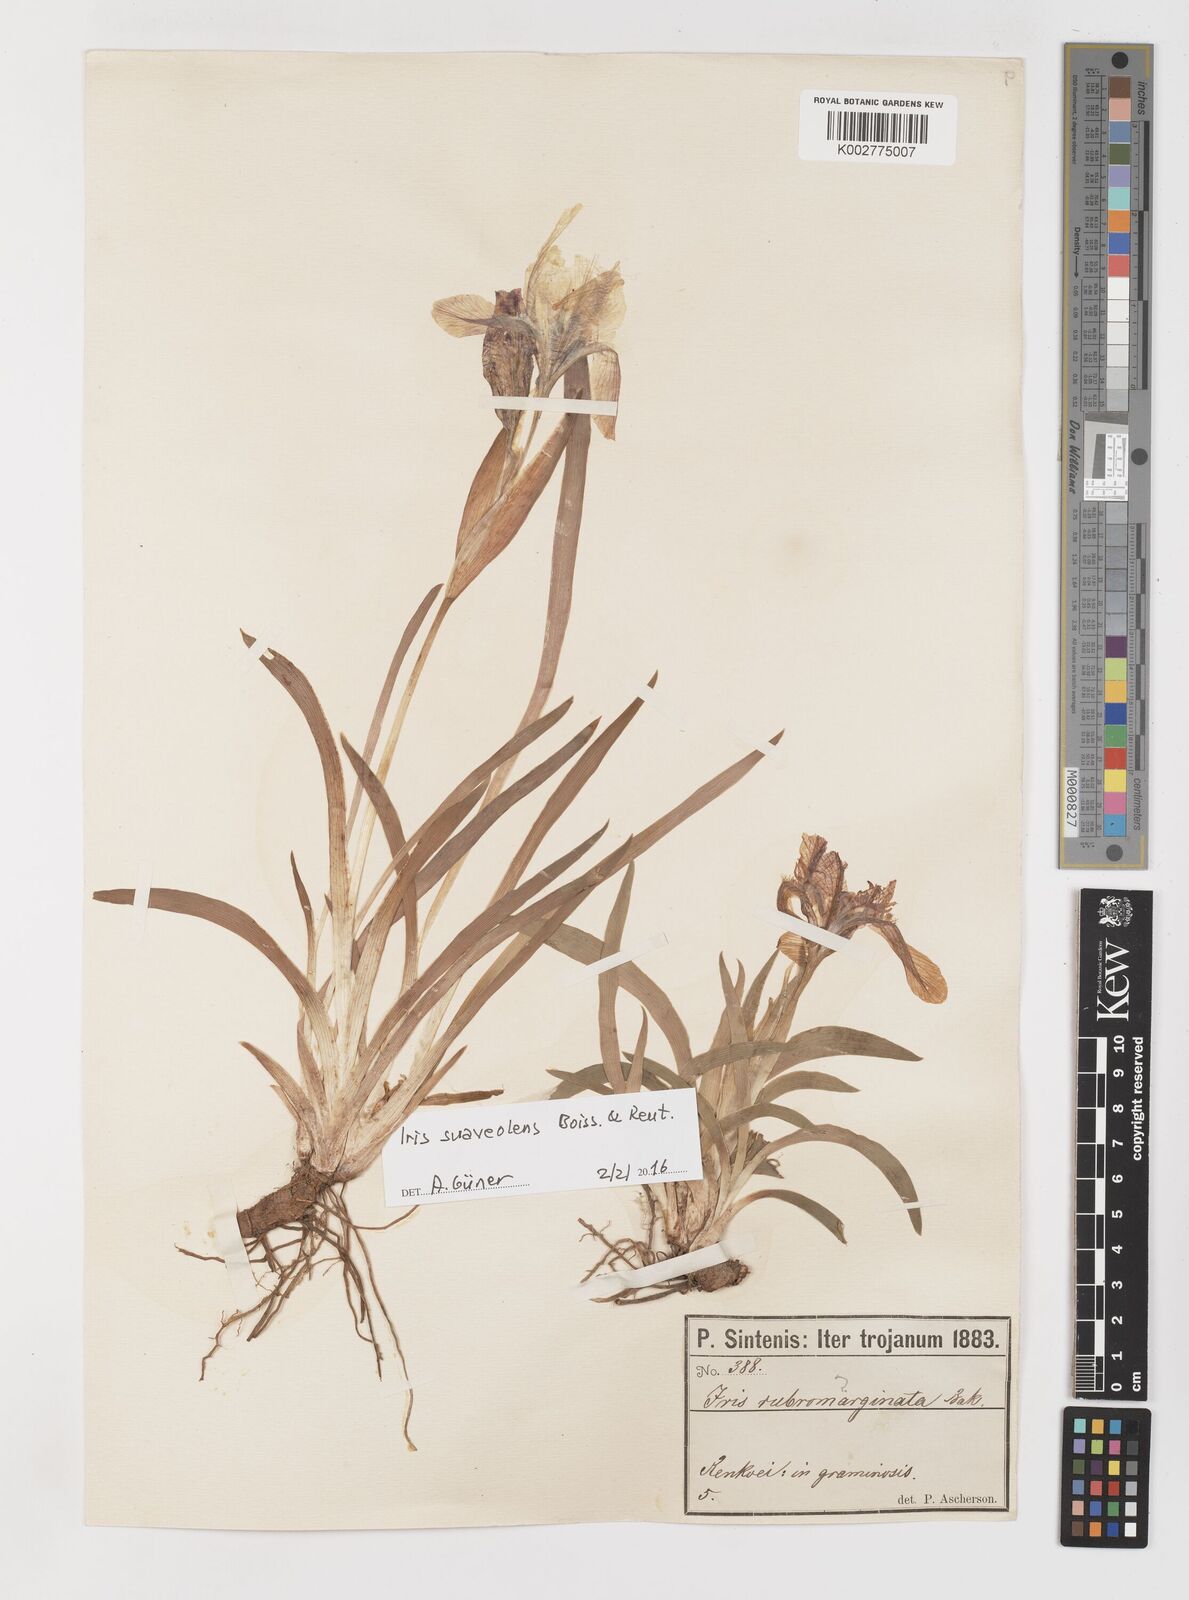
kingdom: Plantae
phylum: Tracheophyta
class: Liliopsida
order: Asparagales
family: Iridaceae
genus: Iris
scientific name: Iris suaveolens
